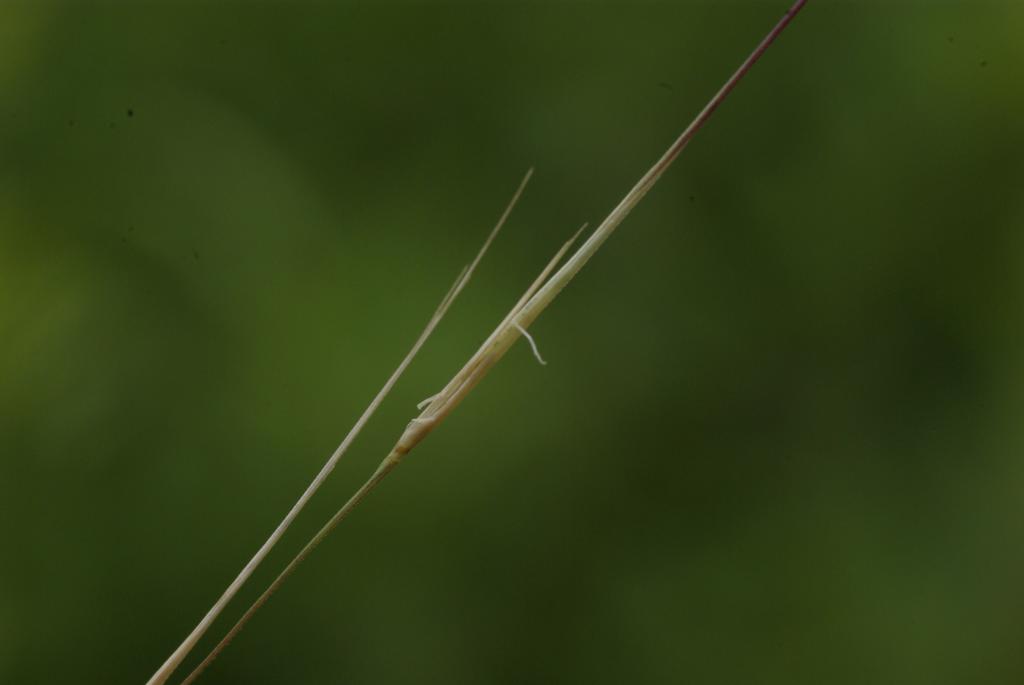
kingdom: Plantae
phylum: Tracheophyta
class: Liliopsida
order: Poales
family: Poaceae
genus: Aristida
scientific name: Aristida chinensis
